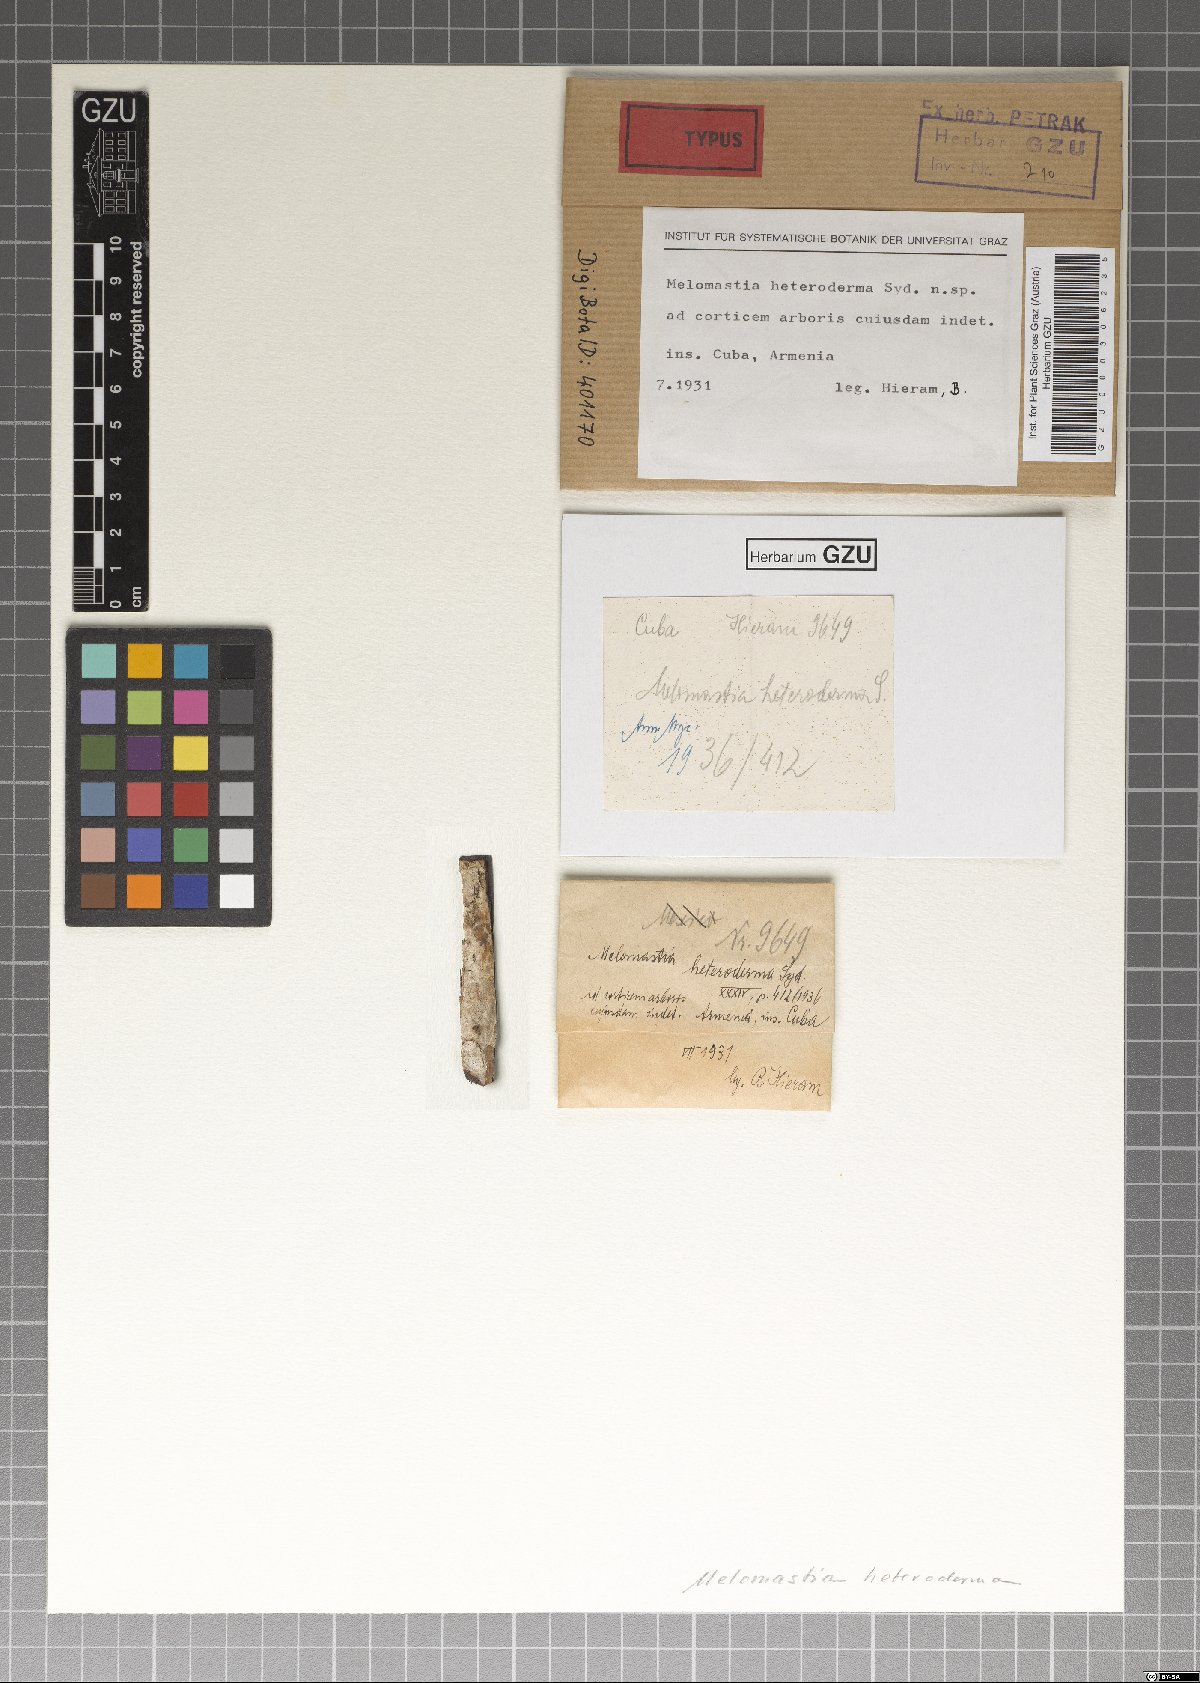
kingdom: Fungi
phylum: Ascomycota
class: Sordariomycetes
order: Xylariales
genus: Melomastia
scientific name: Melomastia heteroderma
